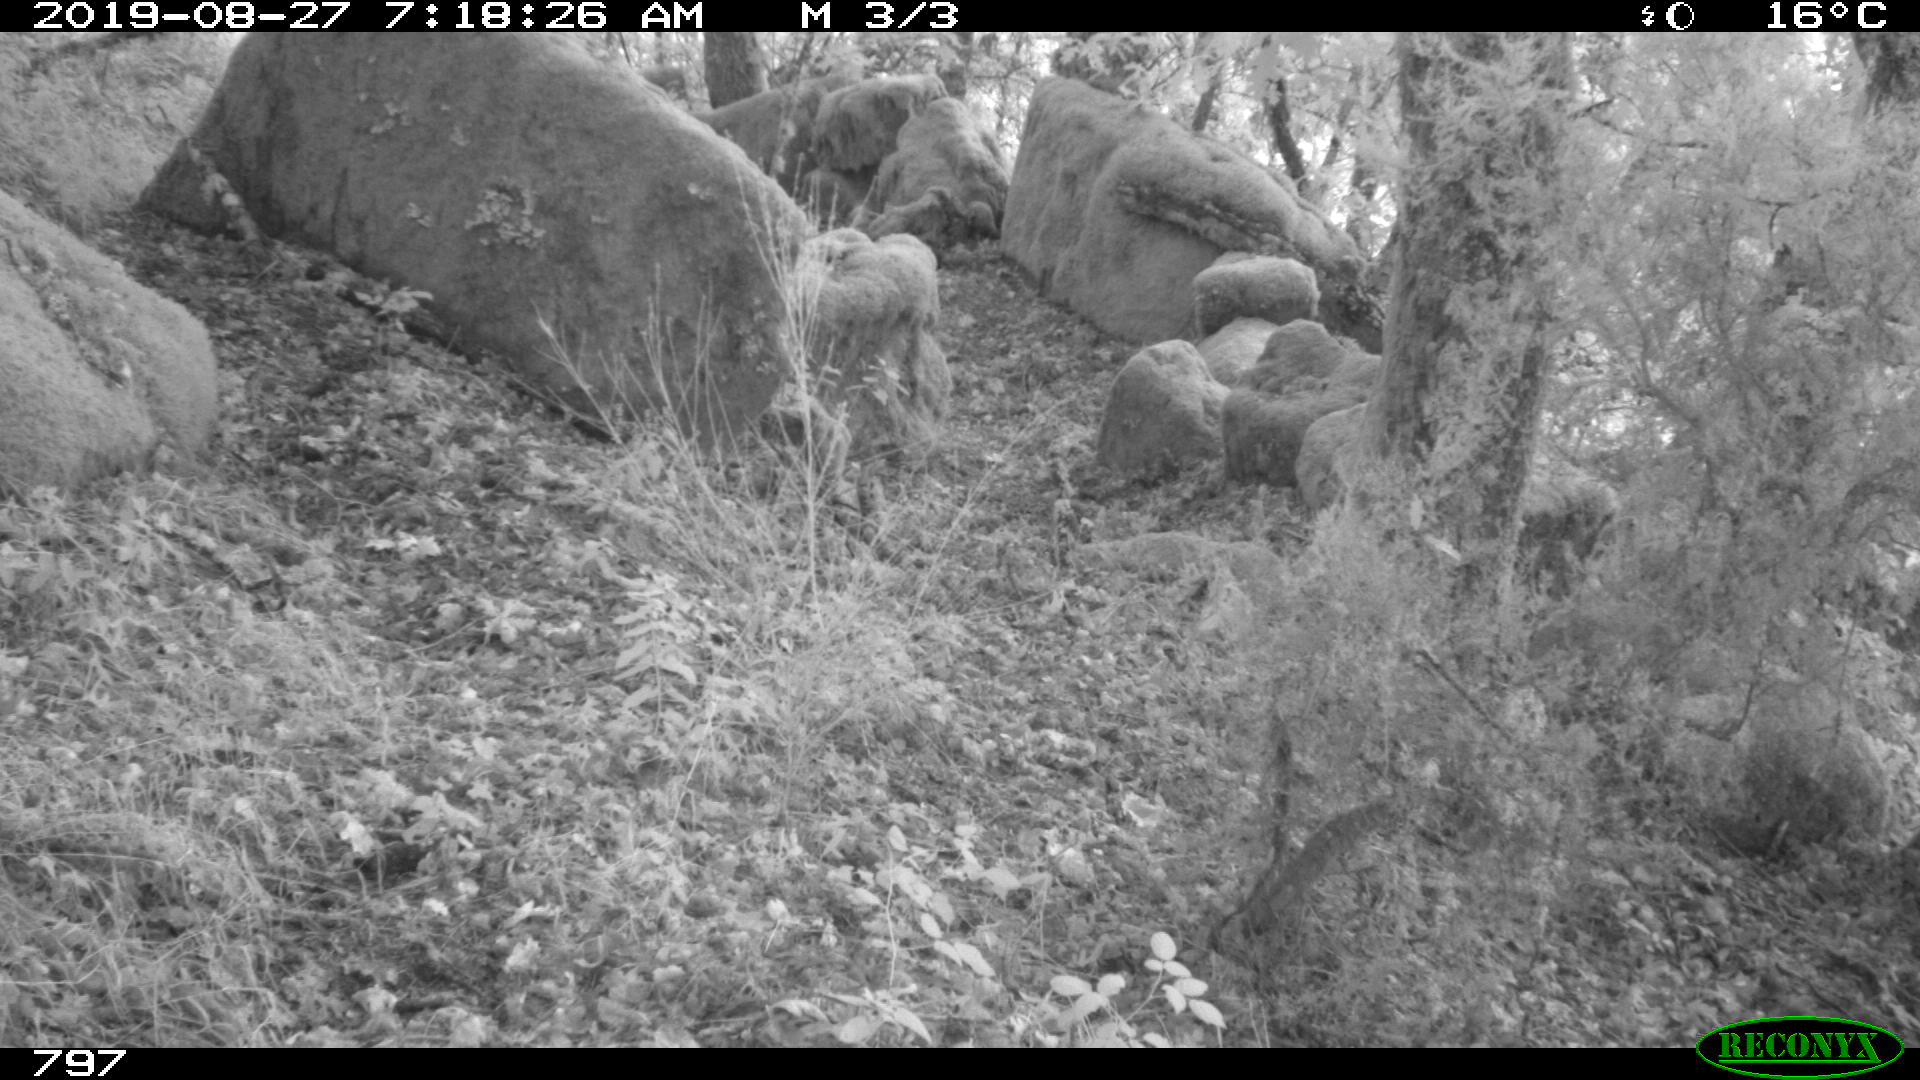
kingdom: Animalia
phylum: Chordata
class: Mammalia
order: Artiodactyla
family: Cervidae
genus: Capreolus
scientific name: Capreolus capreolus
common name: Western roe deer
